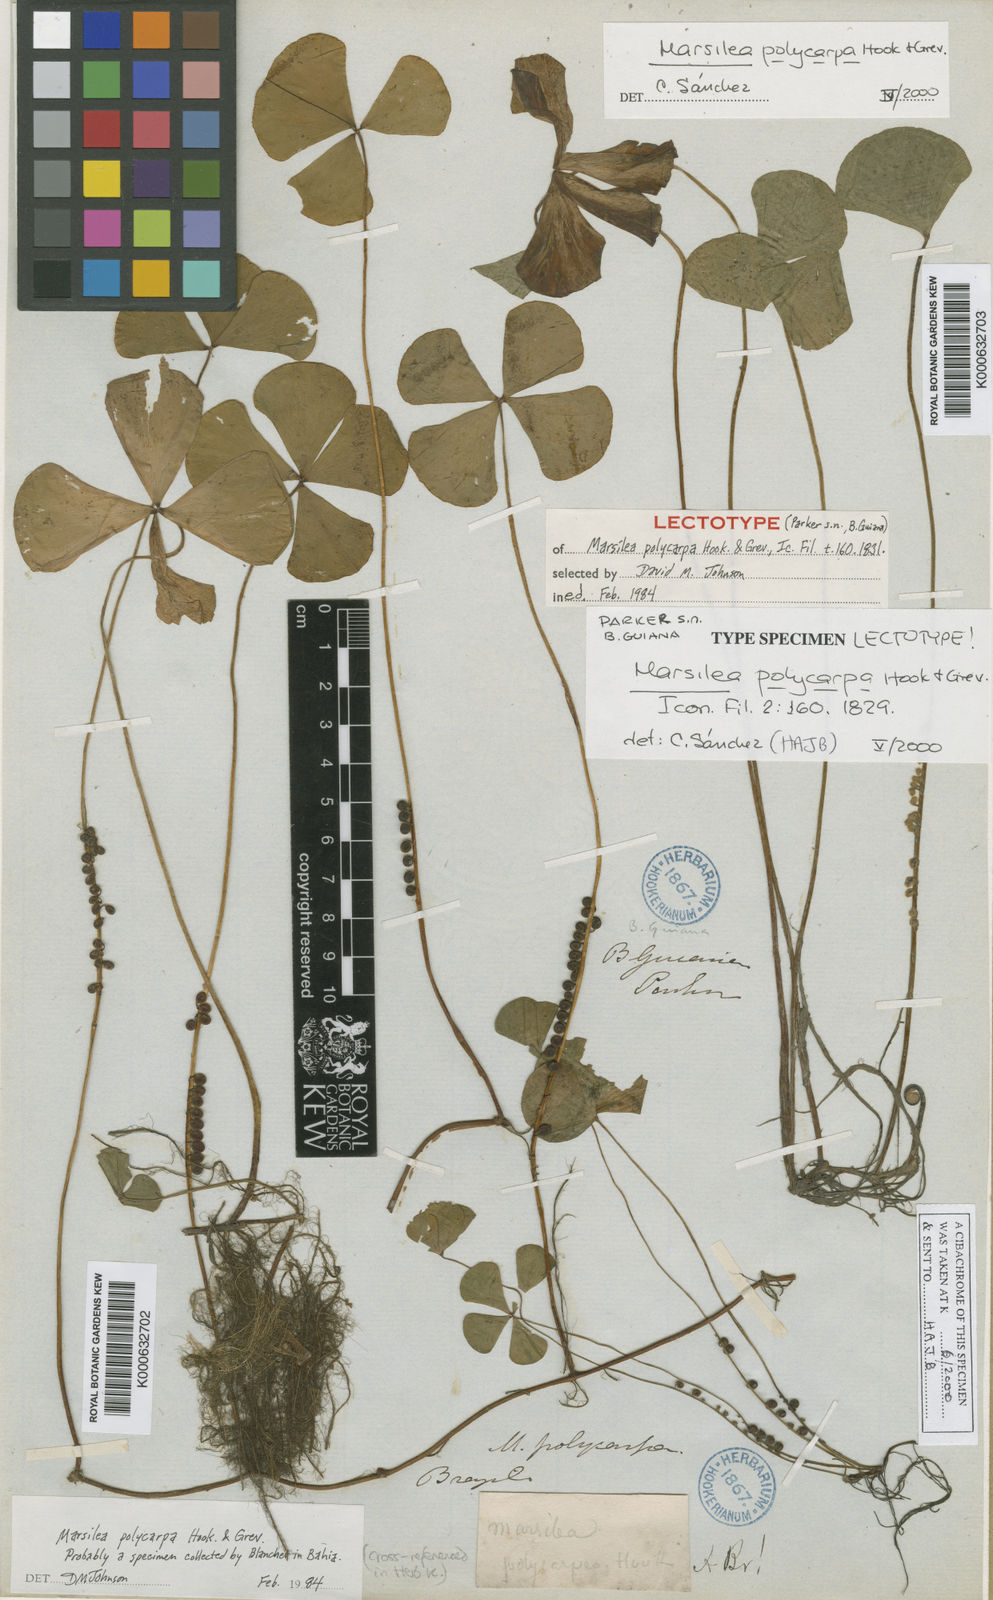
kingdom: Plantae
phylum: Tracheophyta
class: Polypodiopsida
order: Salviniales
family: Marsileaceae
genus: Marsilea
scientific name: Marsilea polycarpa
